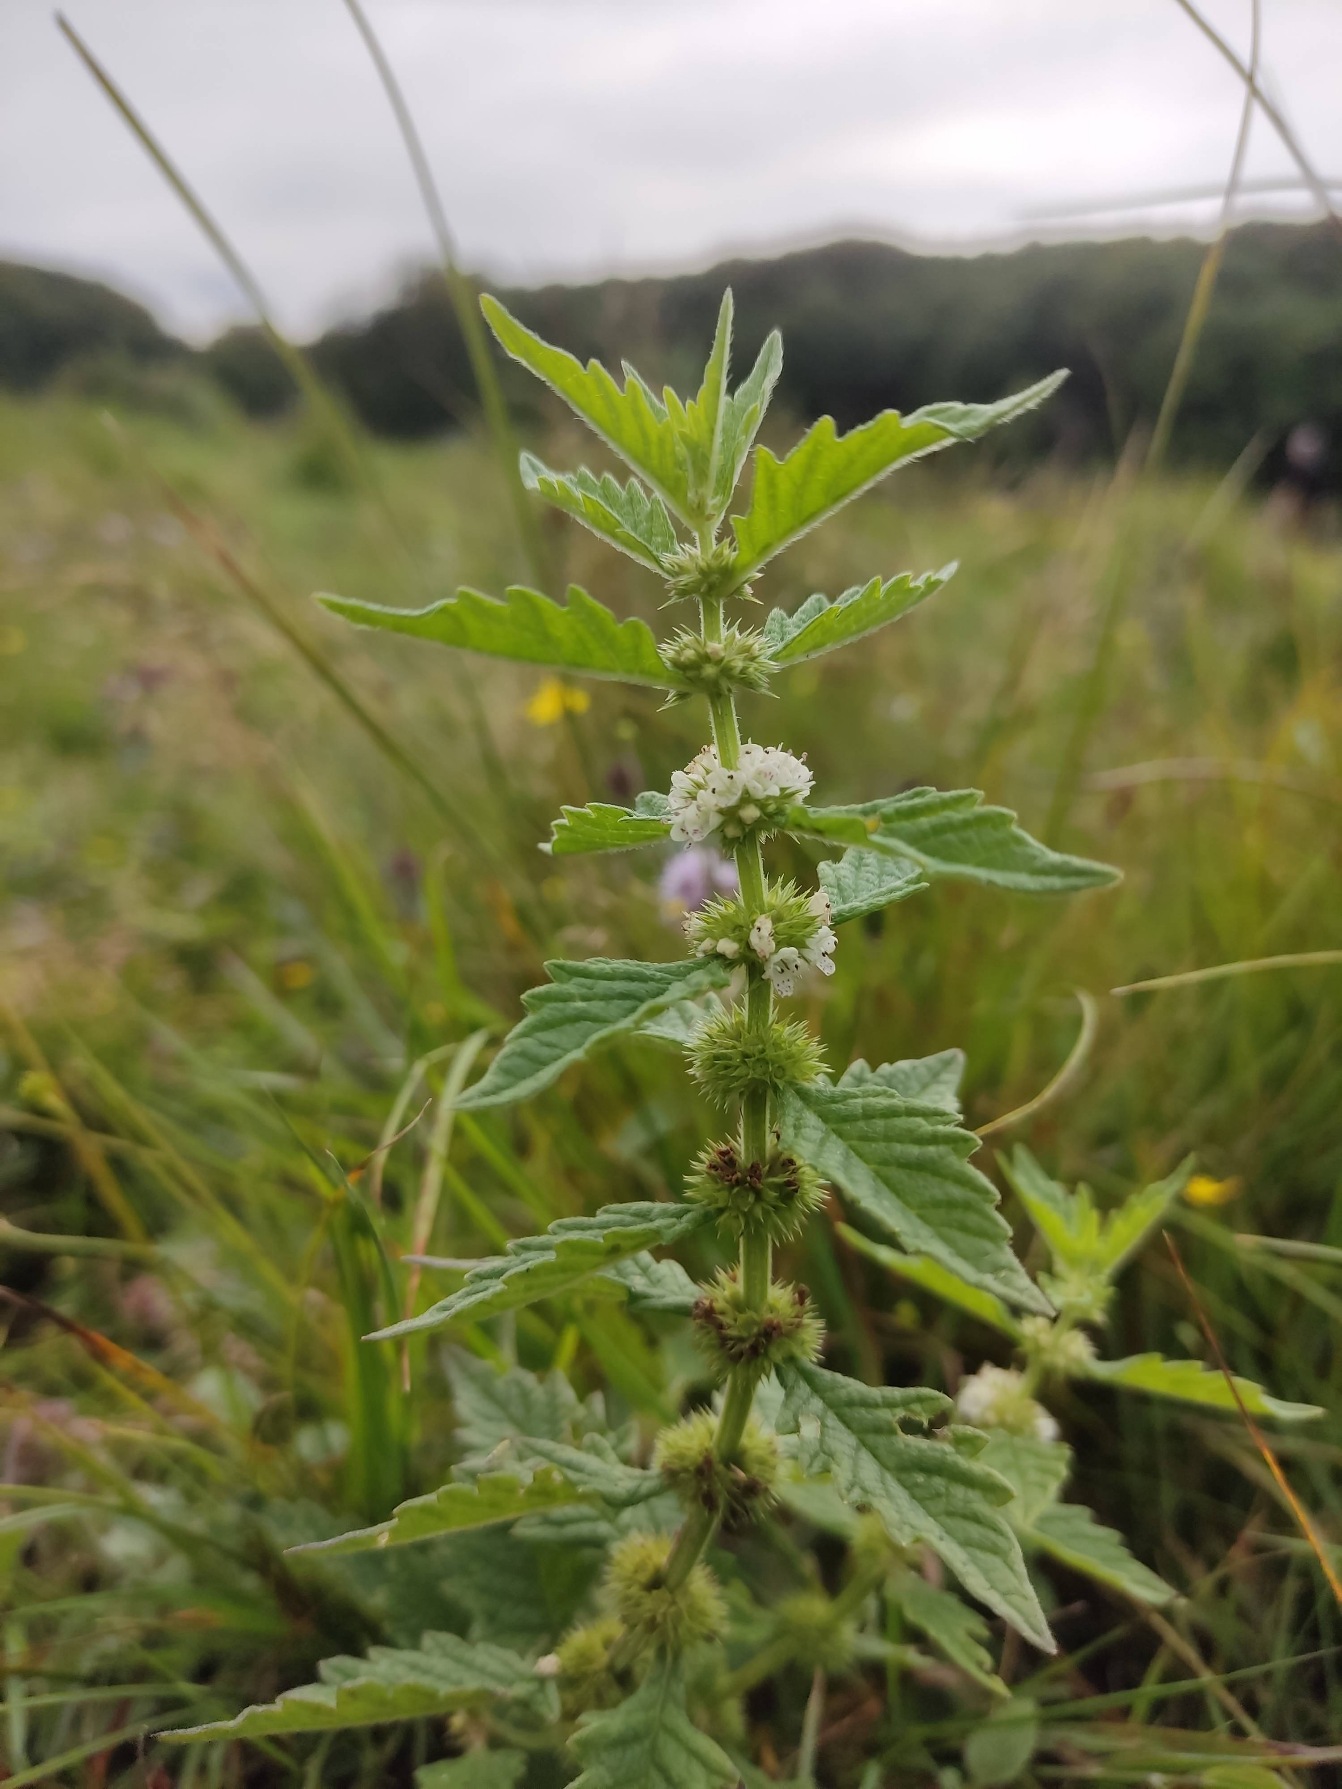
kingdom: Plantae
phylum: Tracheophyta
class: Magnoliopsida
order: Lamiales
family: Lamiaceae
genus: Lycopus
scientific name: Lycopus europaeus
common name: Sværtevæld
